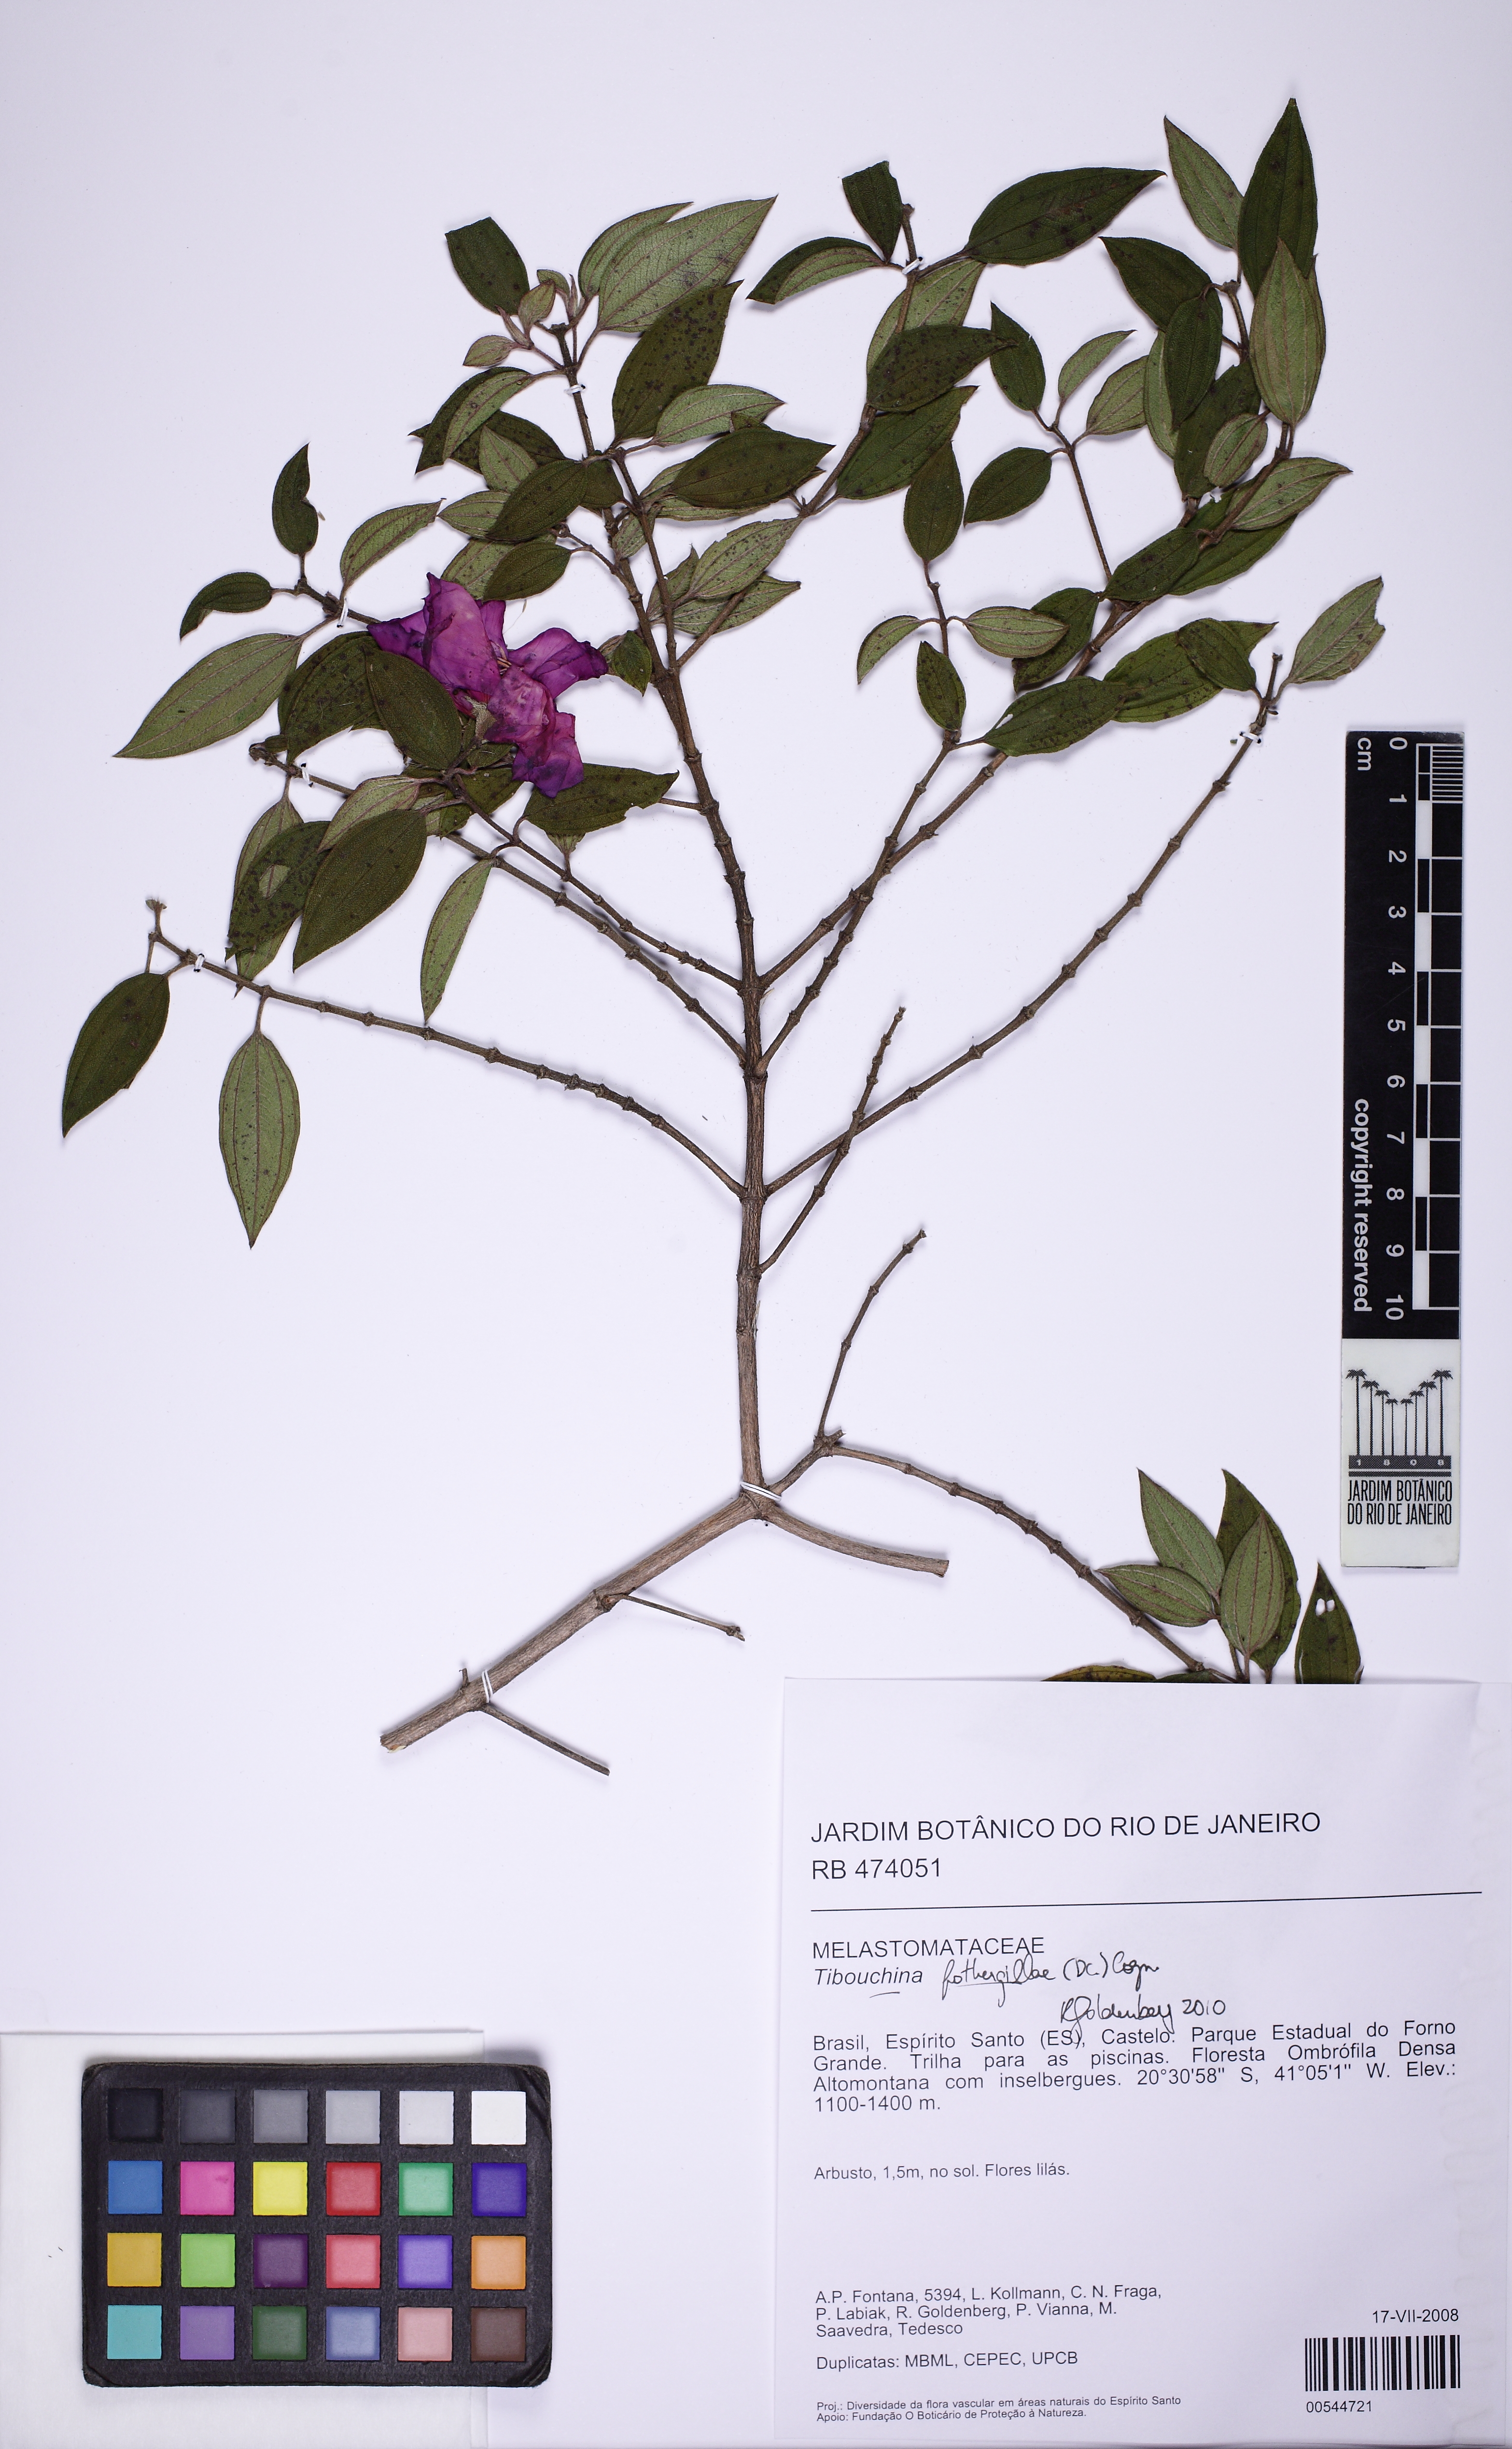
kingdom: Plantae
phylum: Tracheophyta
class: Magnoliopsida
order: Myrtales
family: Melastomataceae
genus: Pleroma
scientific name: Pleroma fothergillae
